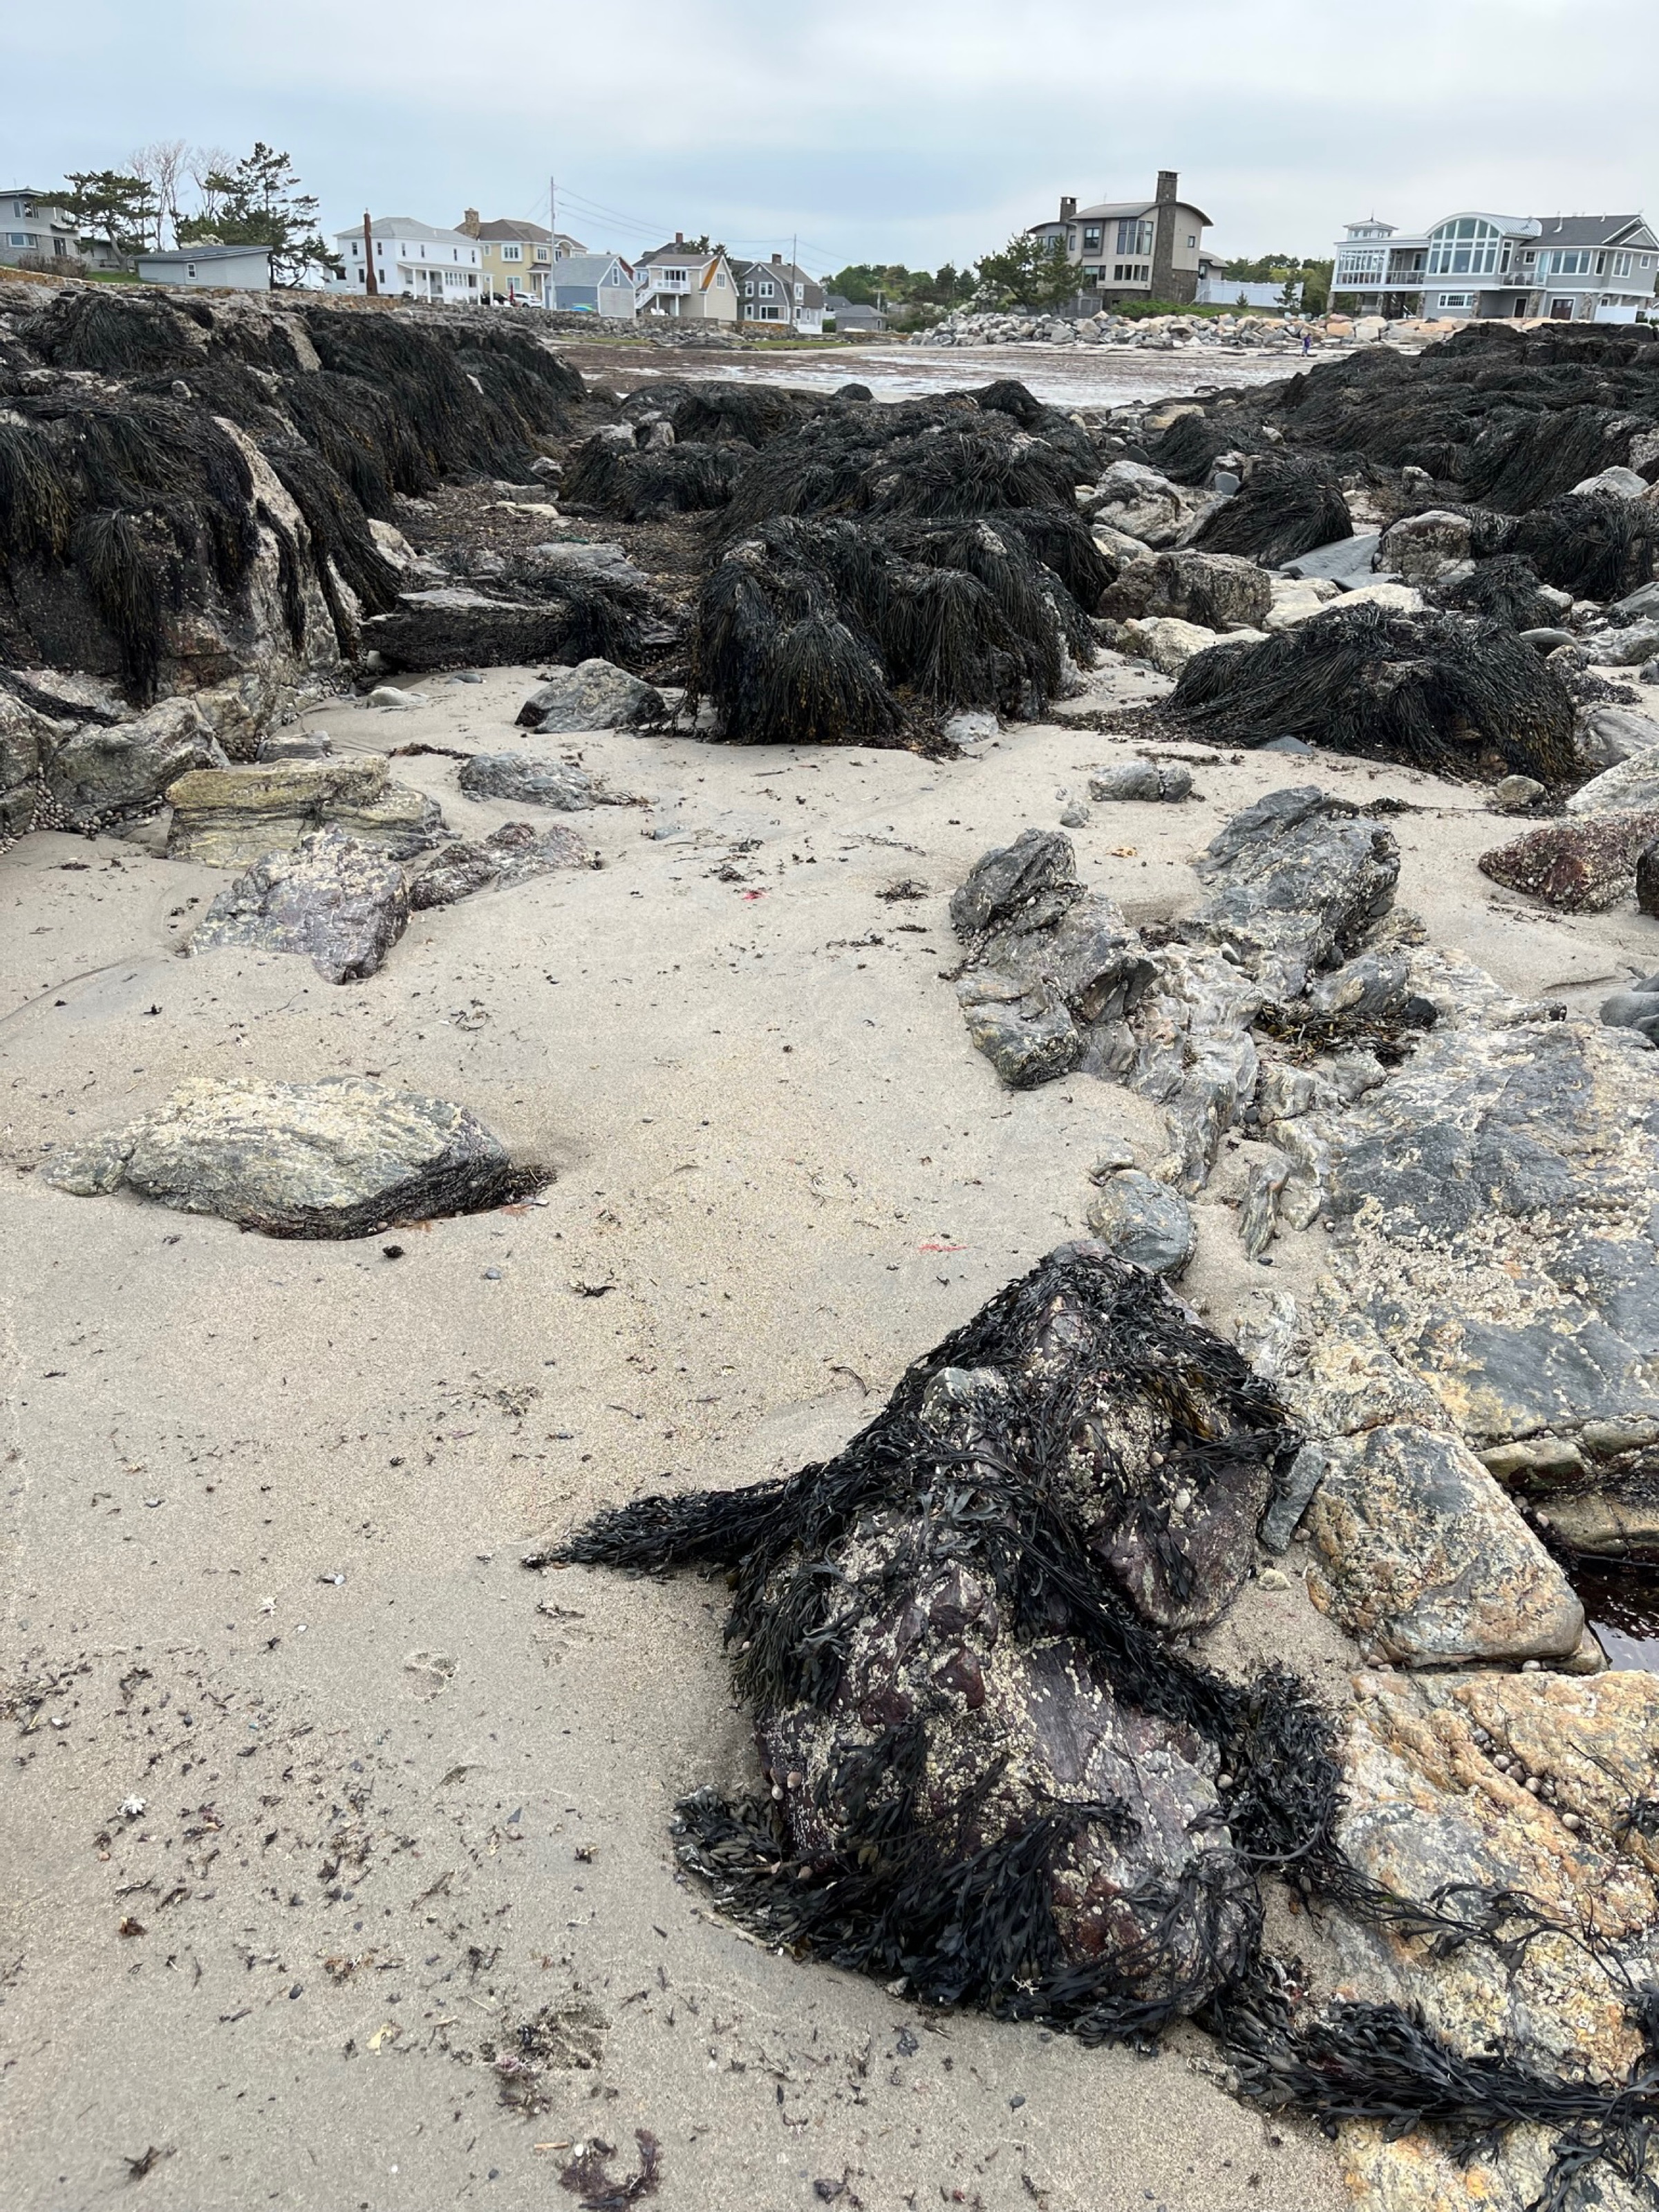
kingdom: Chromista
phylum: Ochrophyta
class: Phaeophyceae
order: Fucales
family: Fucaceae
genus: Ascophyllum
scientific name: Ascophyllum nodosum
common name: Rockweed
